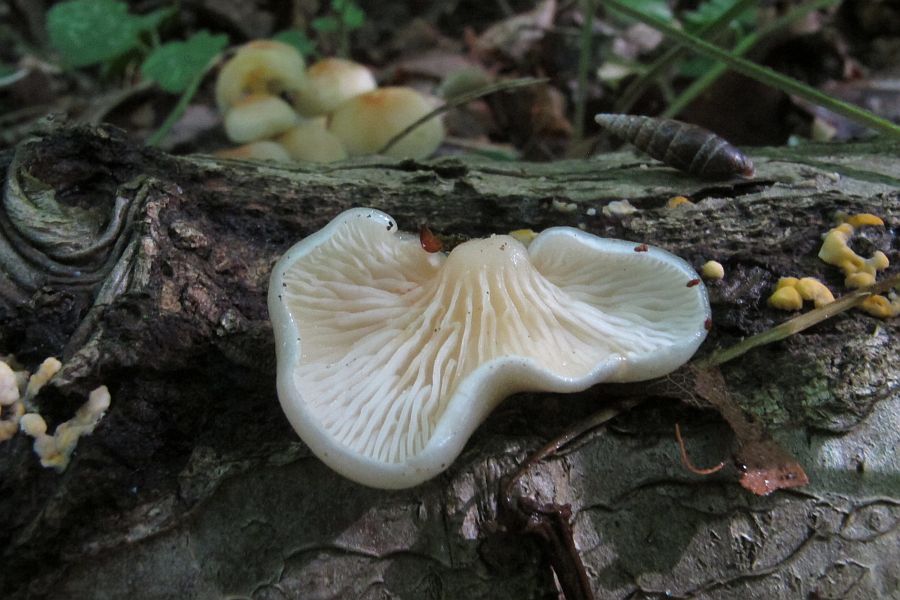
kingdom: Fungi
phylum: Basidiomycota
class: Agaricomycetes
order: Agaricales
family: Pleurotaceae
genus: Hohenbuehelia
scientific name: Hohenbuehelia fluxilis
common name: pile-filthat
